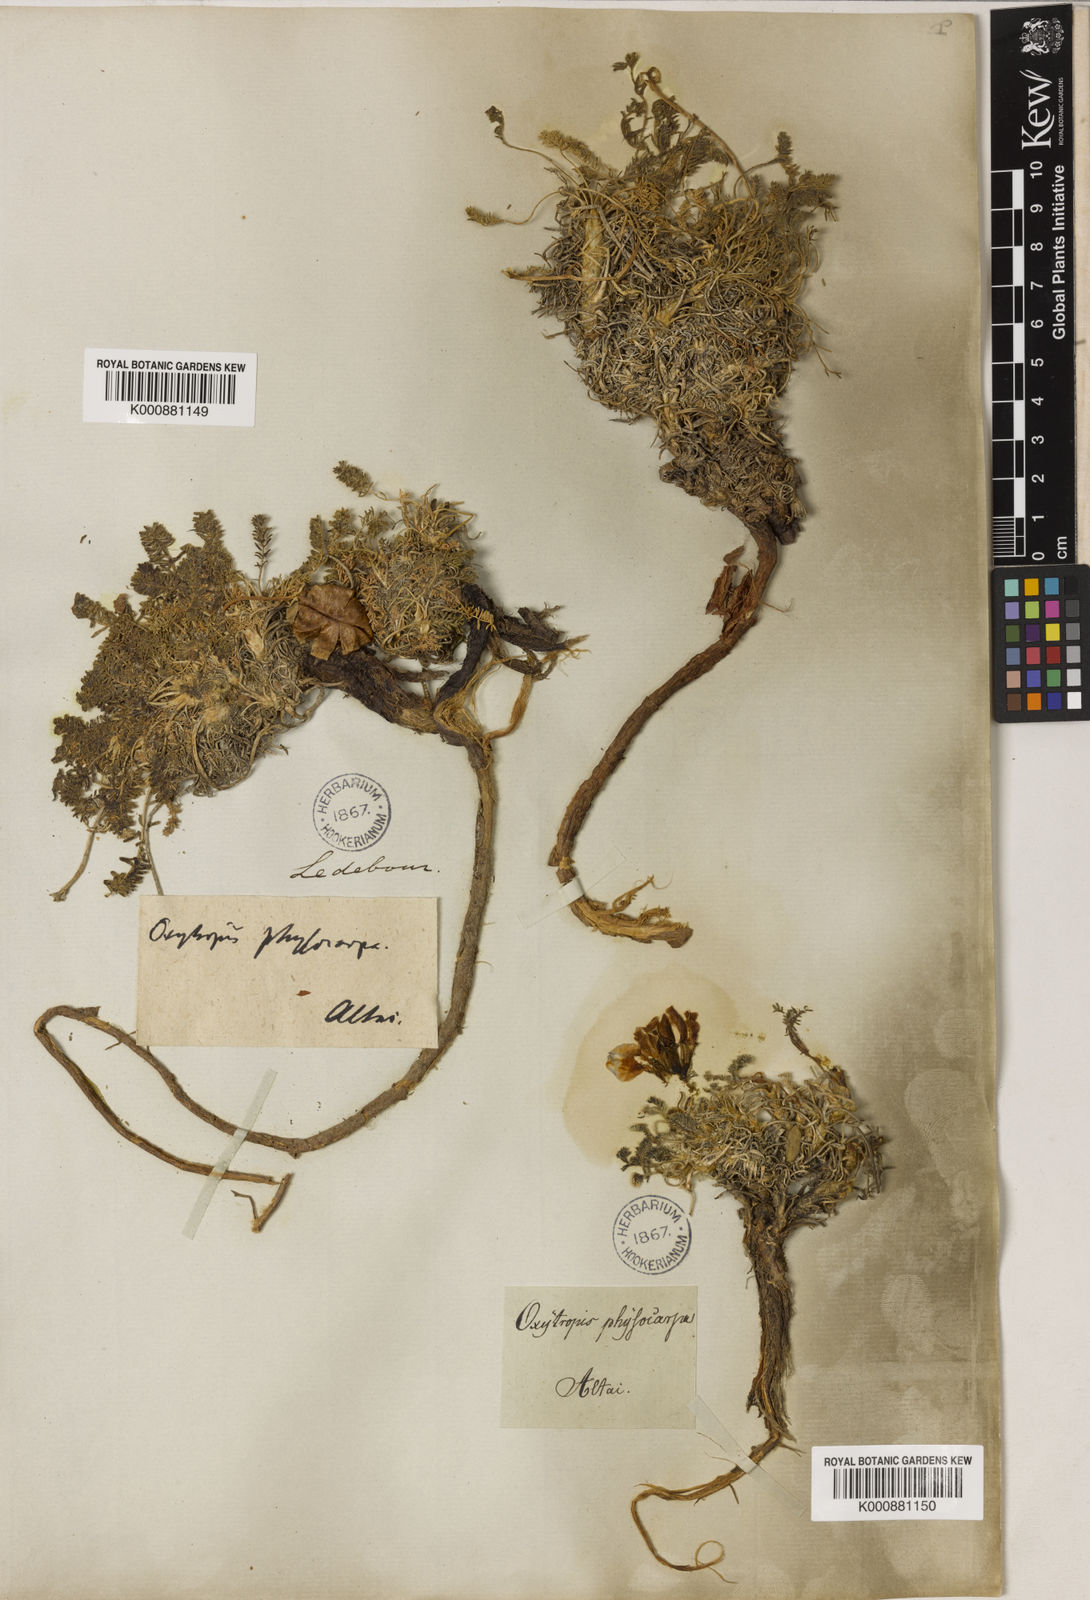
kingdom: Plantae
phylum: Tracheophyta
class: Magnoliopsida
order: Fabales
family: Fabaceae
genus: Oxytropis
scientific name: Oxytropis physocarpa
